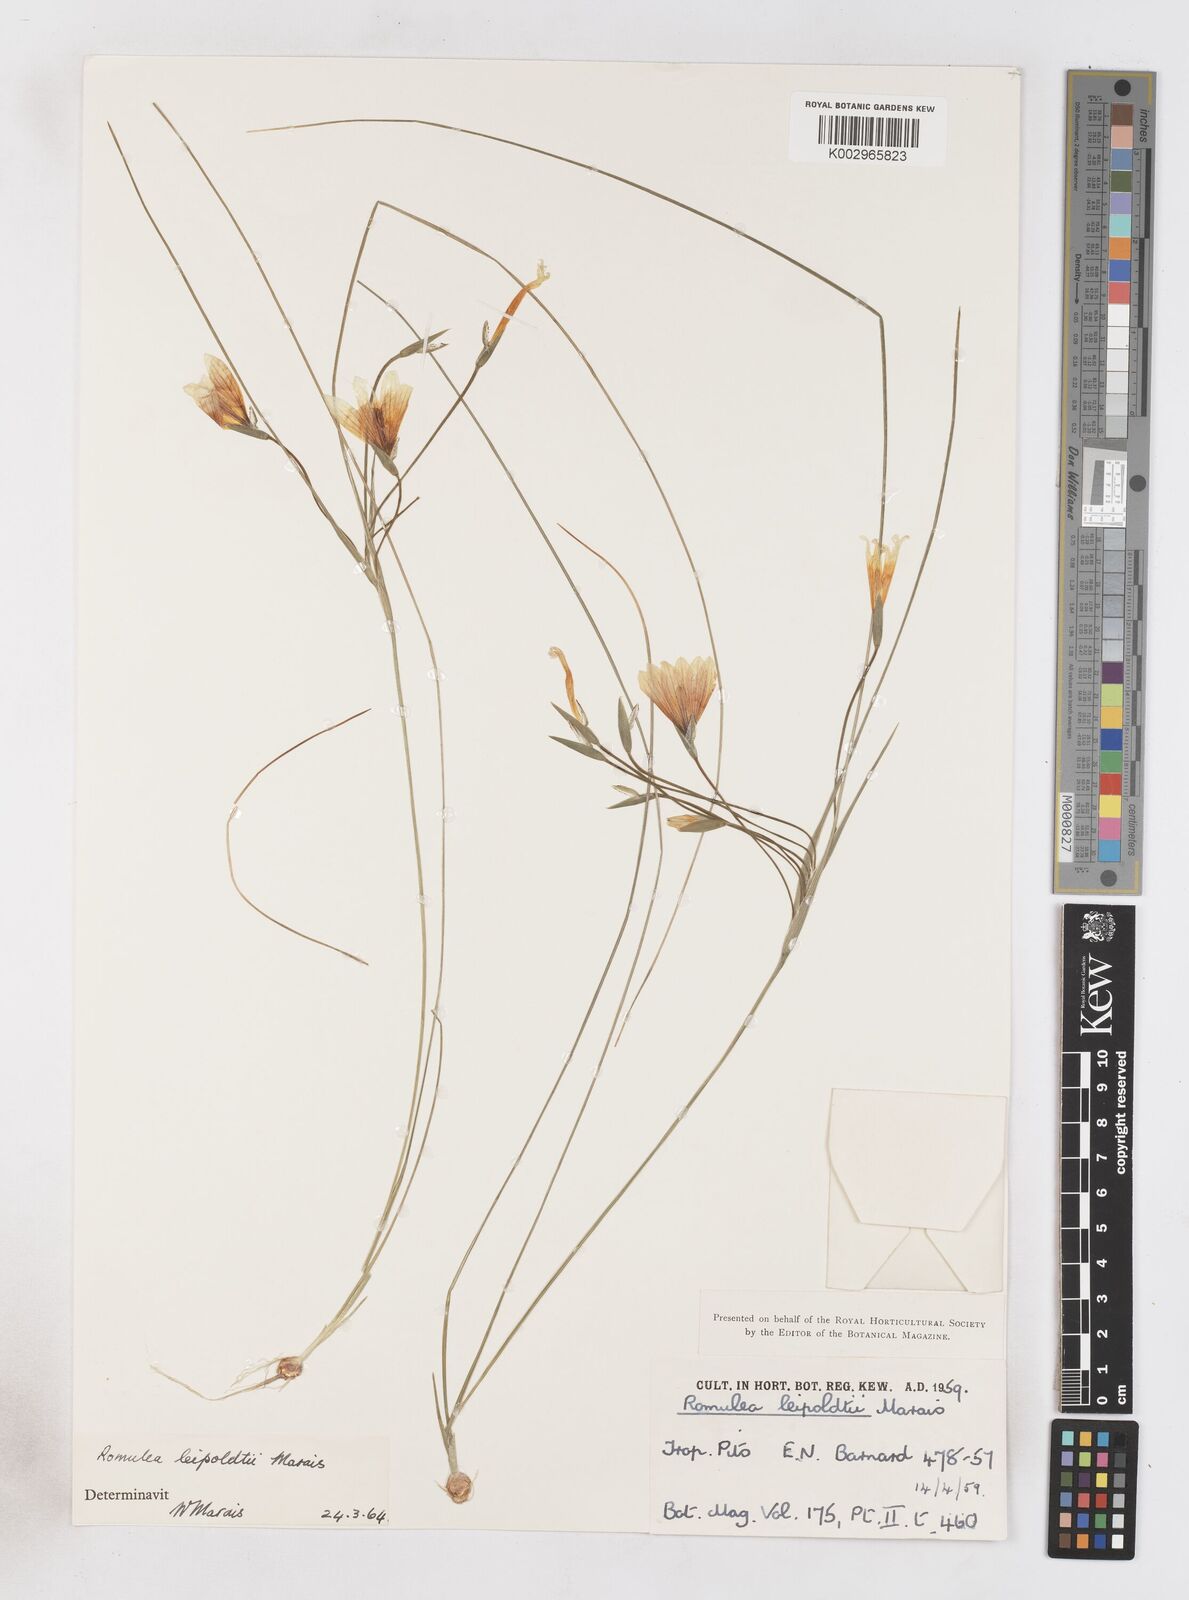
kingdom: Plantae
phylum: Tracheophyta
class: Liliopsida
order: Asparagales
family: Iridaceae
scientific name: Iridaceae
